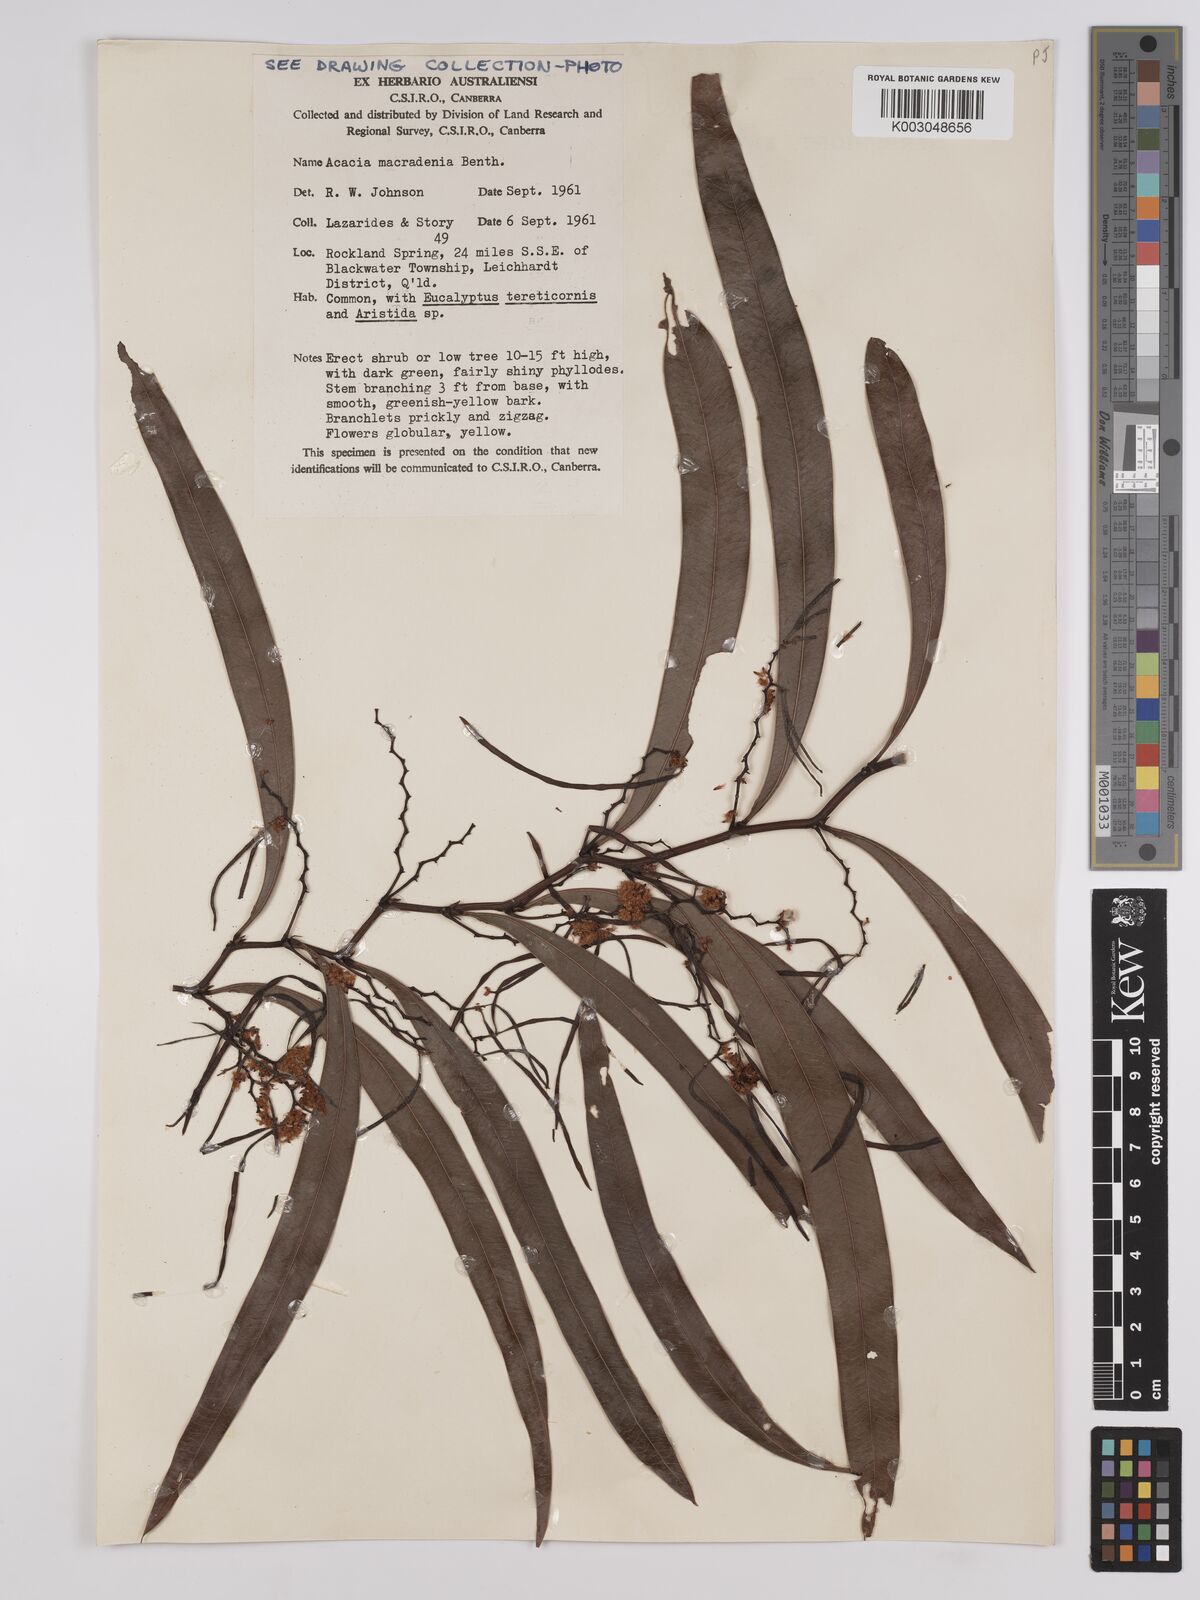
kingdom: Plantae
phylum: Tracheophyta
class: Magnoliopsida
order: Fabales
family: Fabaceae
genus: Acacia
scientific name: Acacia macradenia
